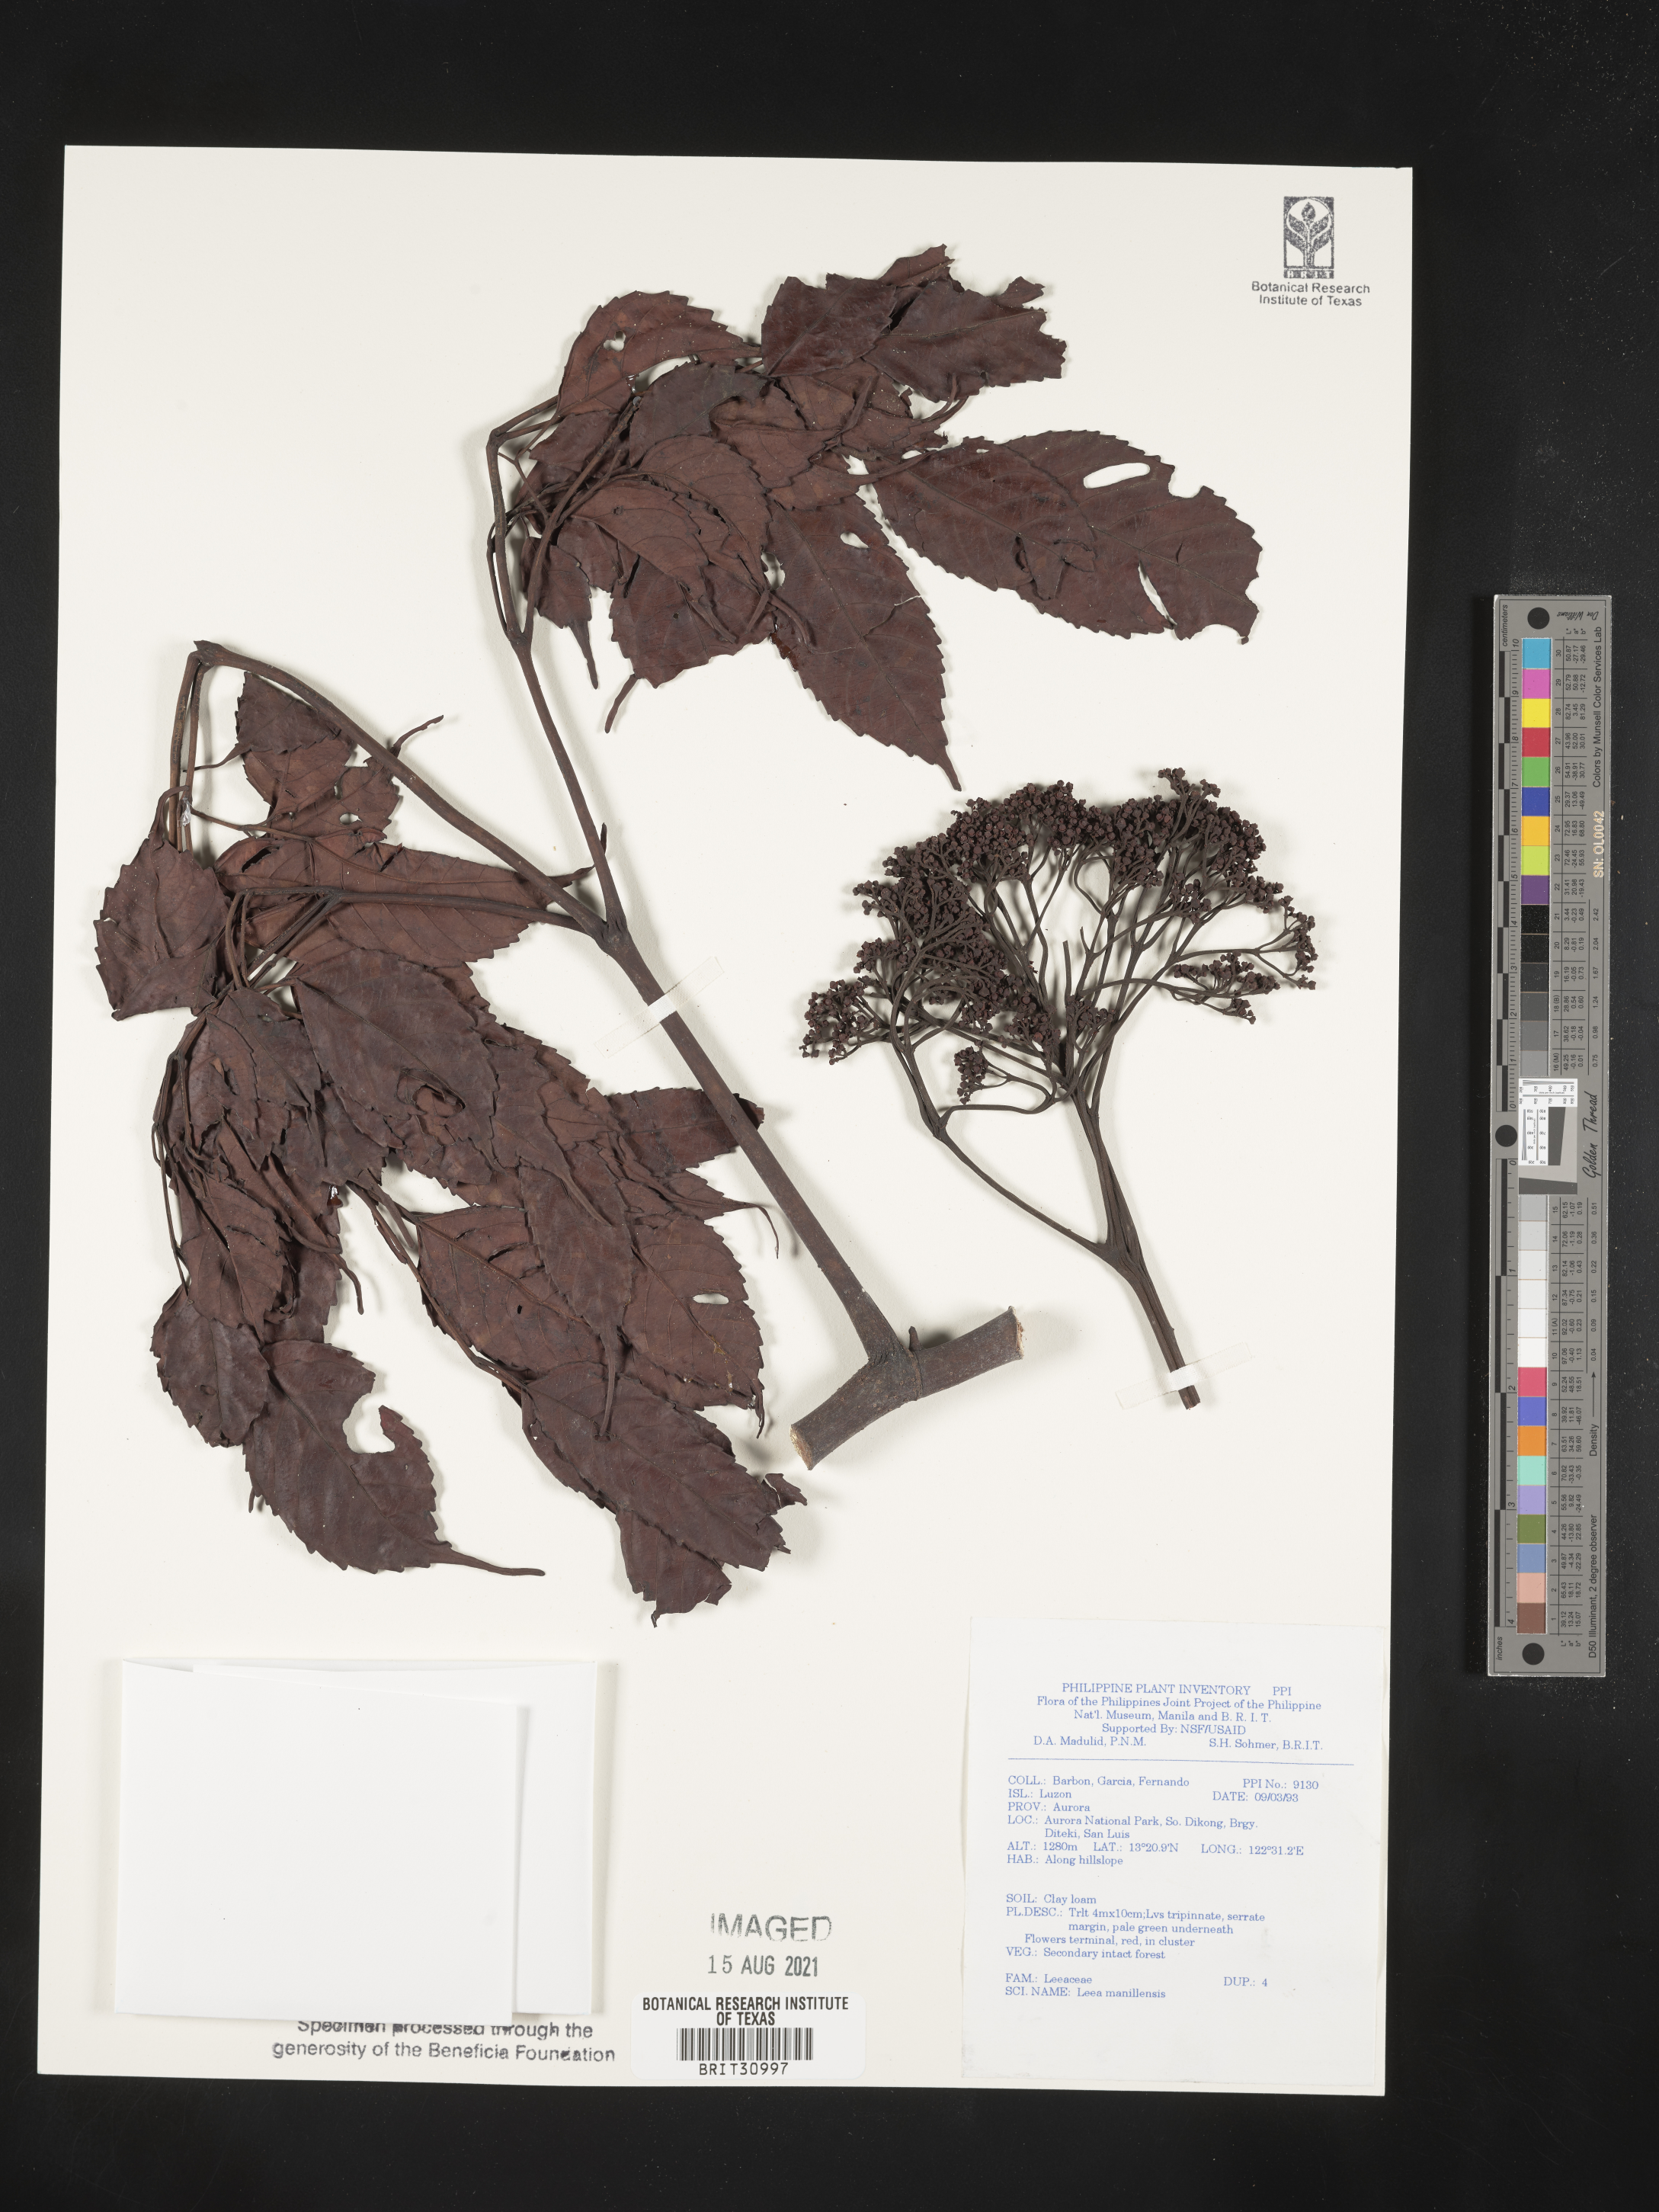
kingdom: Plantae
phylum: Tracheophyta
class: Magnoliopsida
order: Vitales
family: Vitaceae
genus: Leea
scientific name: Leea guineensis
